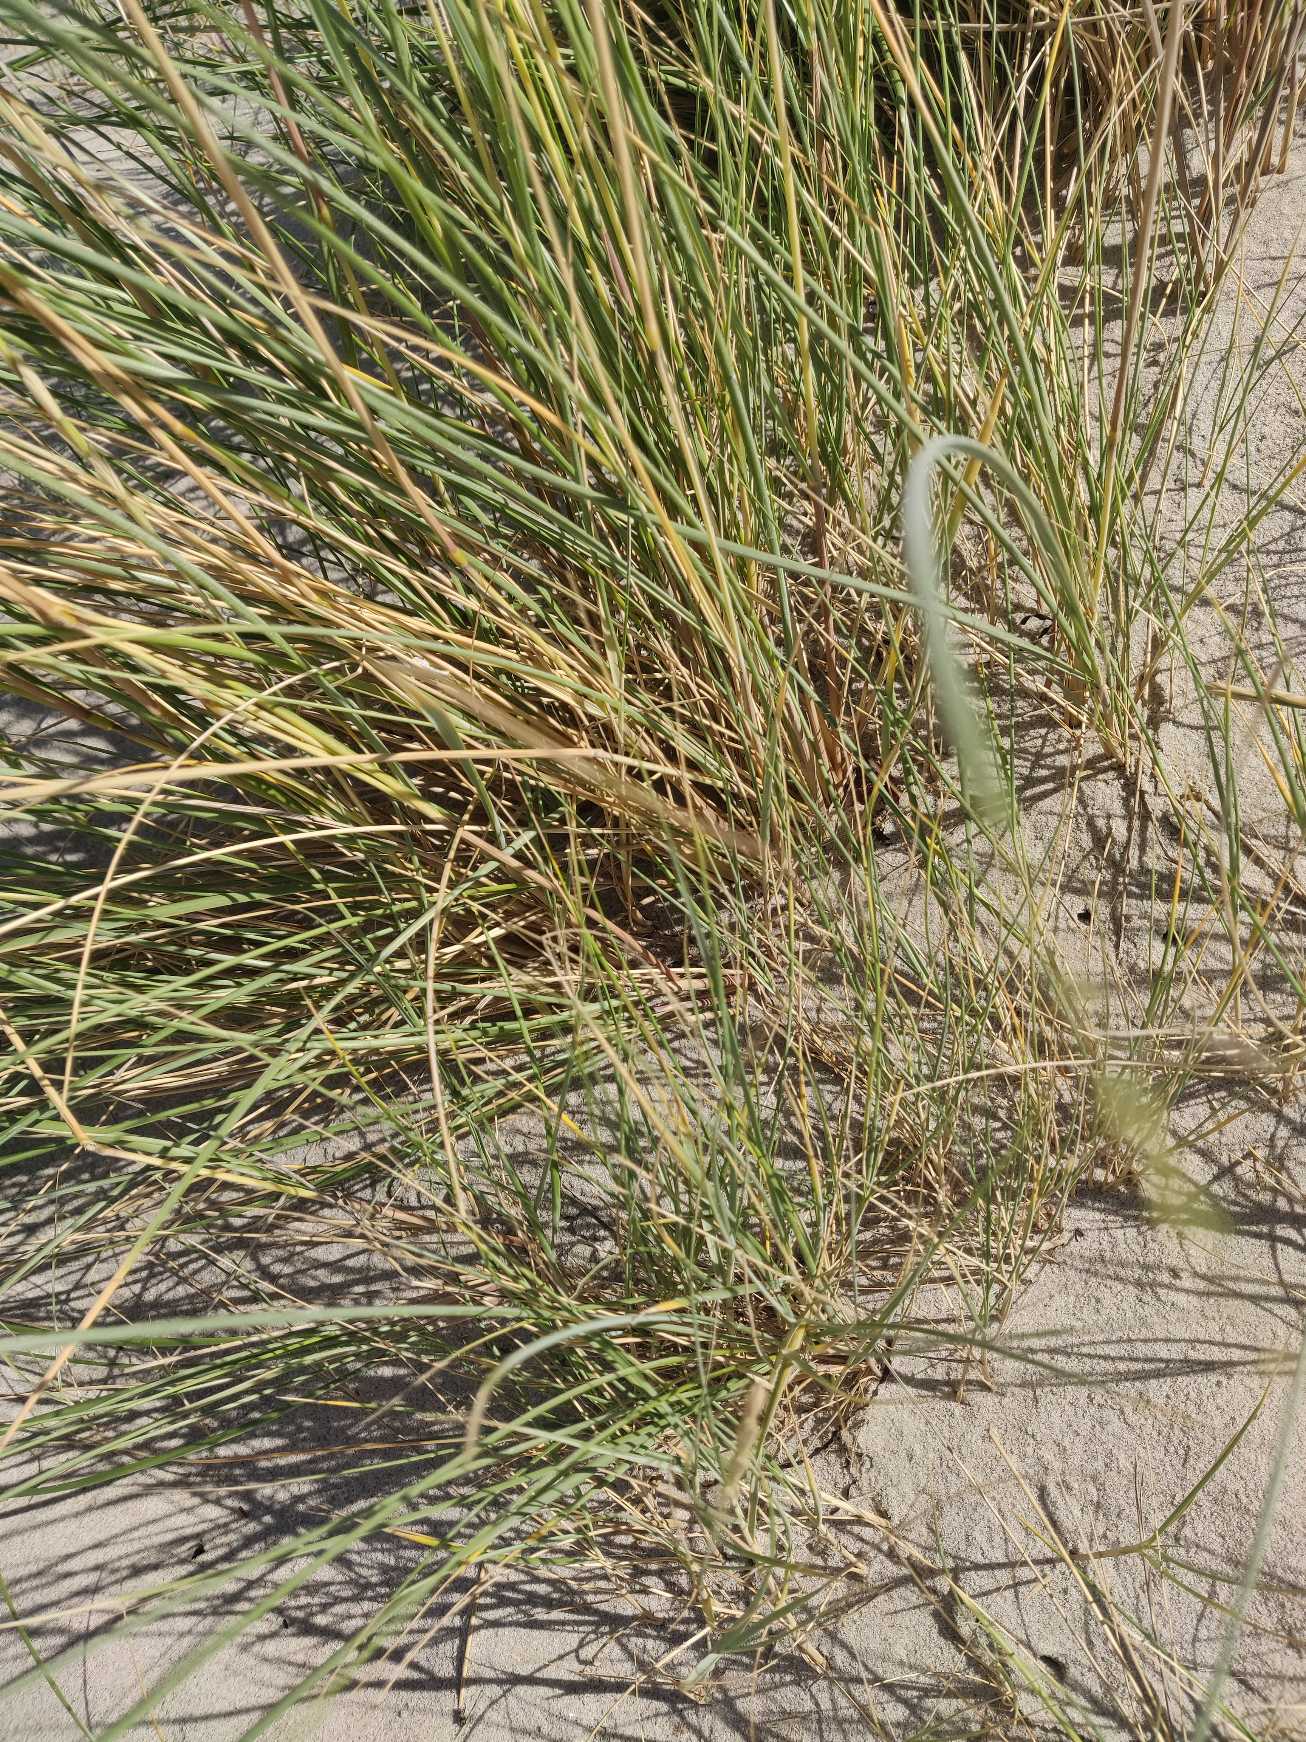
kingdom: Plantae
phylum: Tracheophyta
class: Liliopsida
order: Poales
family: Poaceae
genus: Calamagrostis
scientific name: Calamagrostis arenaria
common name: Sand-hjælme
